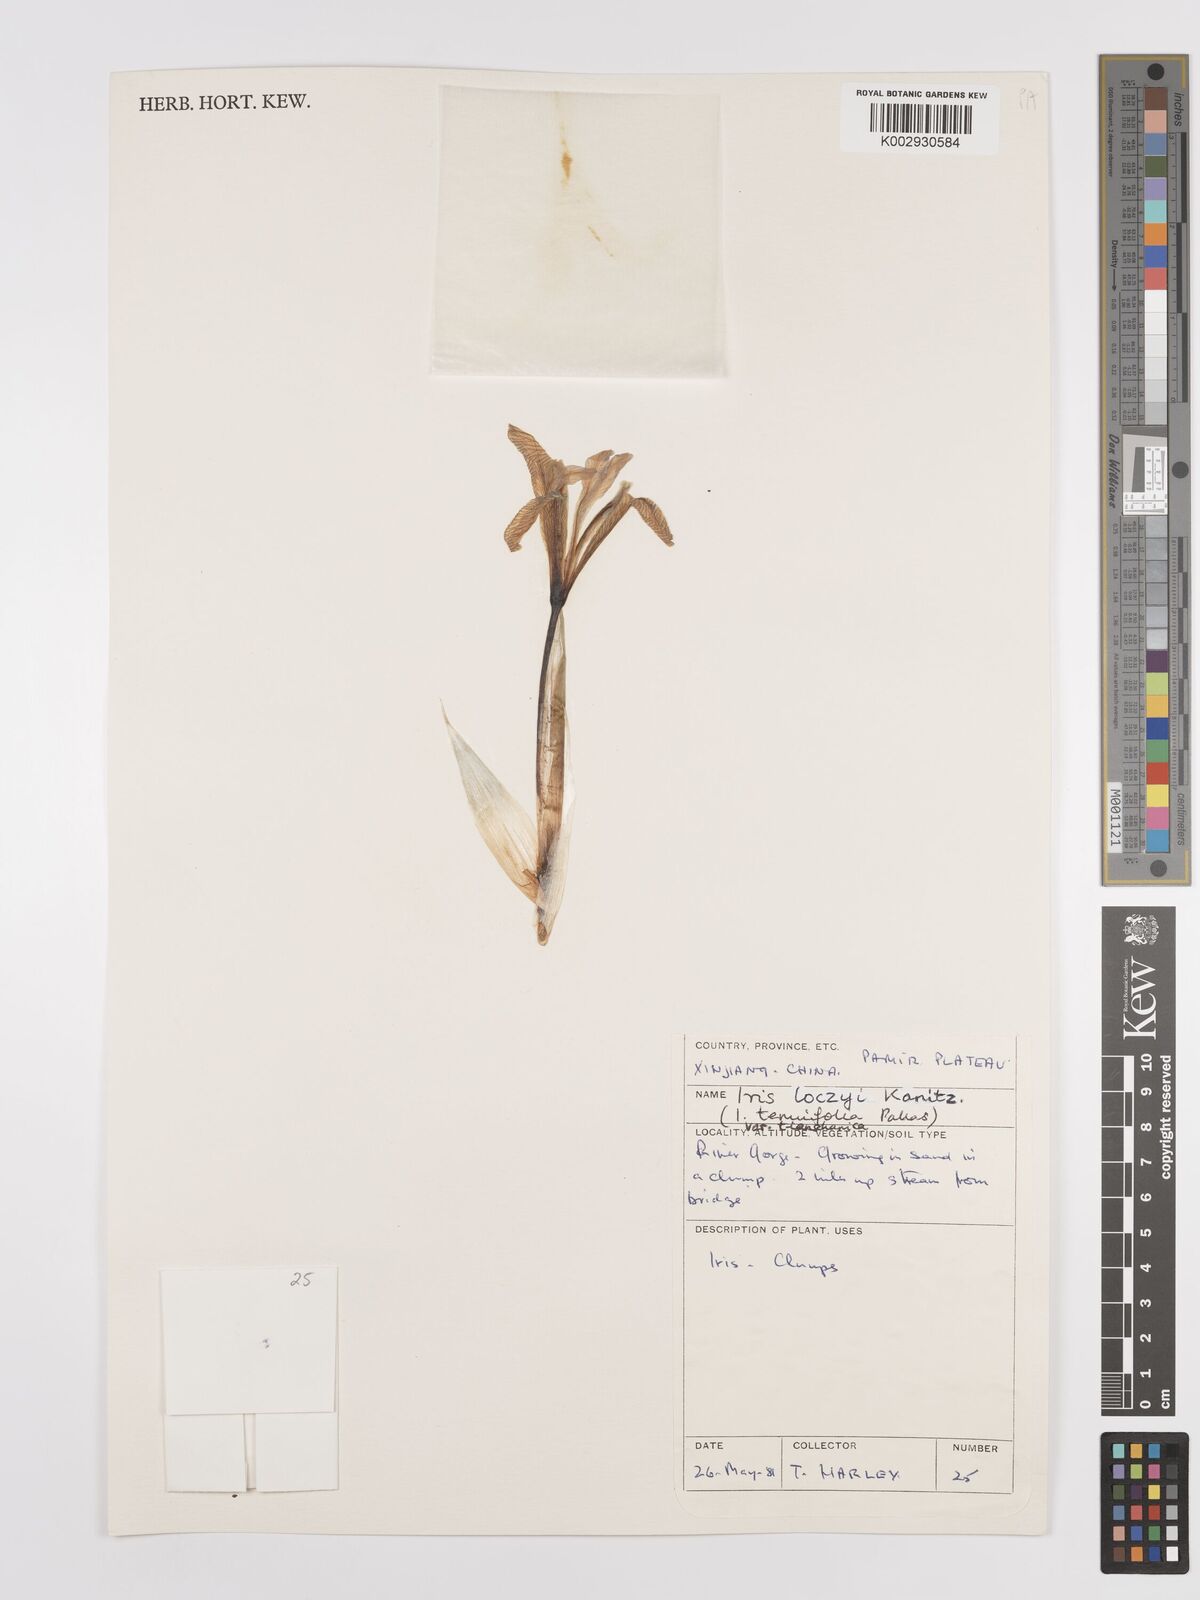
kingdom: Plantae
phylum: Tracheophyta
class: Liliopsida
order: Asparagales
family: Iridaceae
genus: Iris
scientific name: Iris loczyi
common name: Tian shan mountain iris
